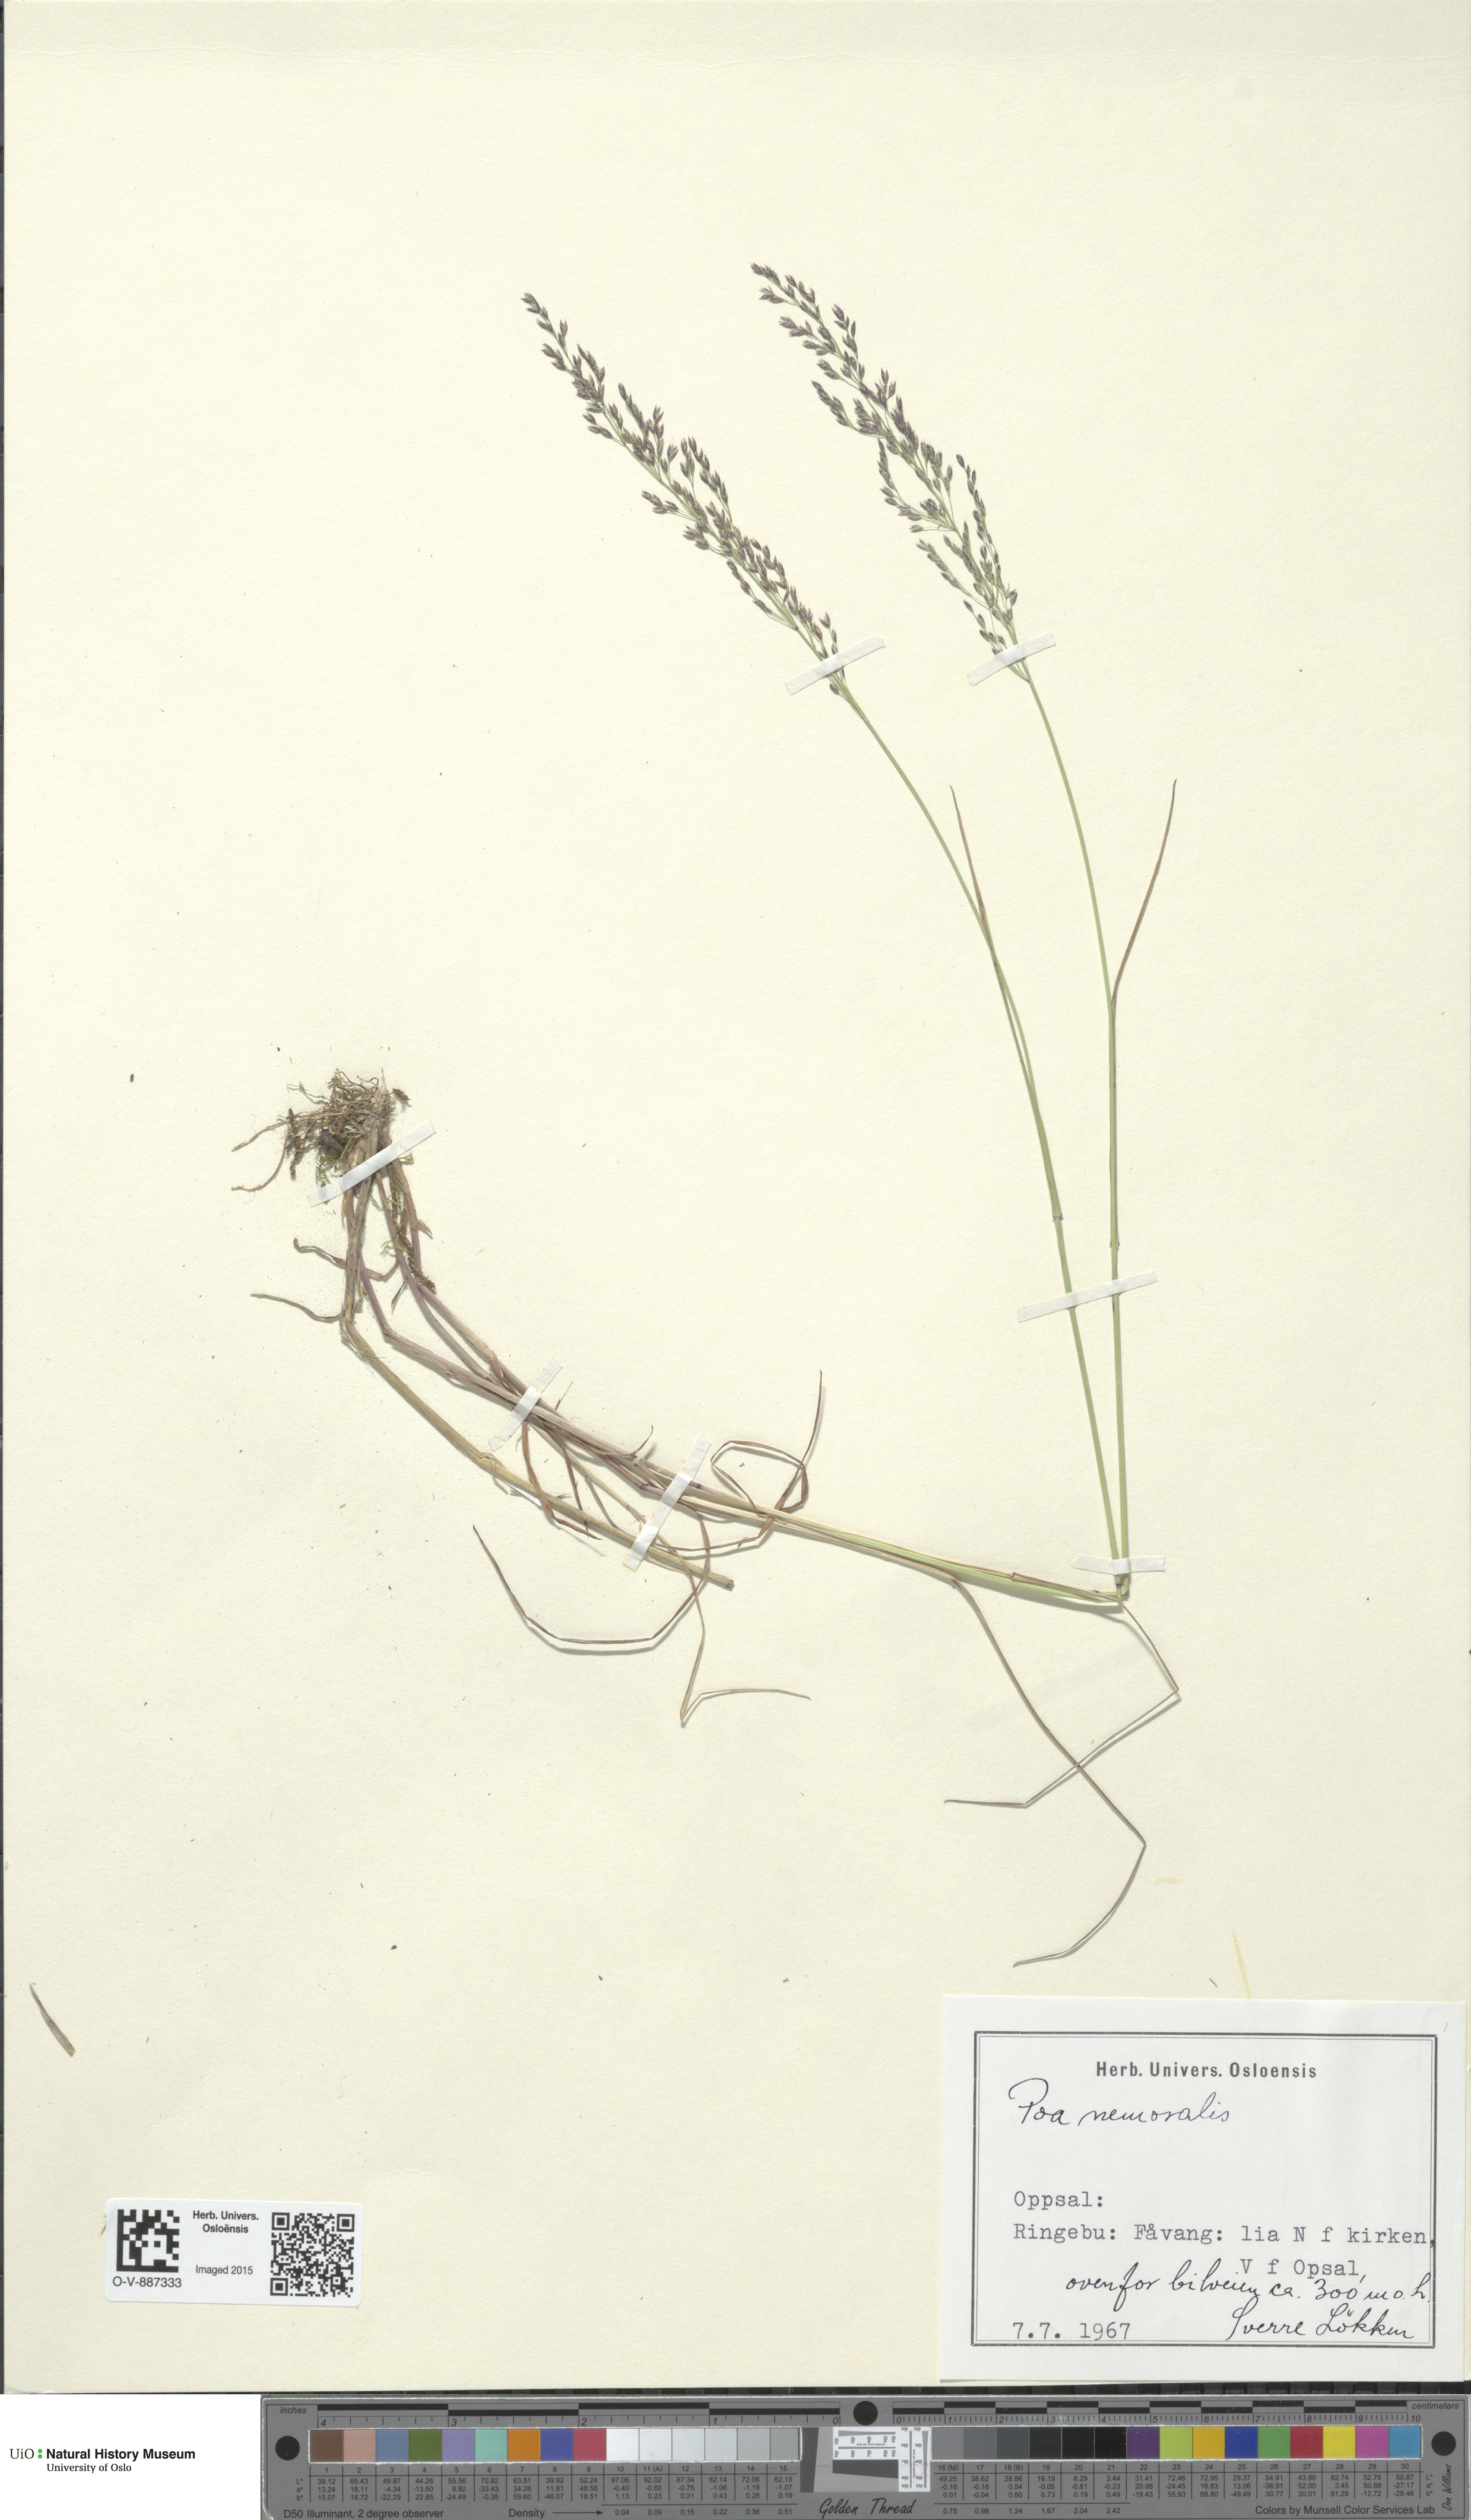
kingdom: Plantae
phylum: Tracheophyta
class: Liliopsida
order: Poales
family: Poaceae
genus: Poa
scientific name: Poa nemoralis
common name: Wood bluegrass
